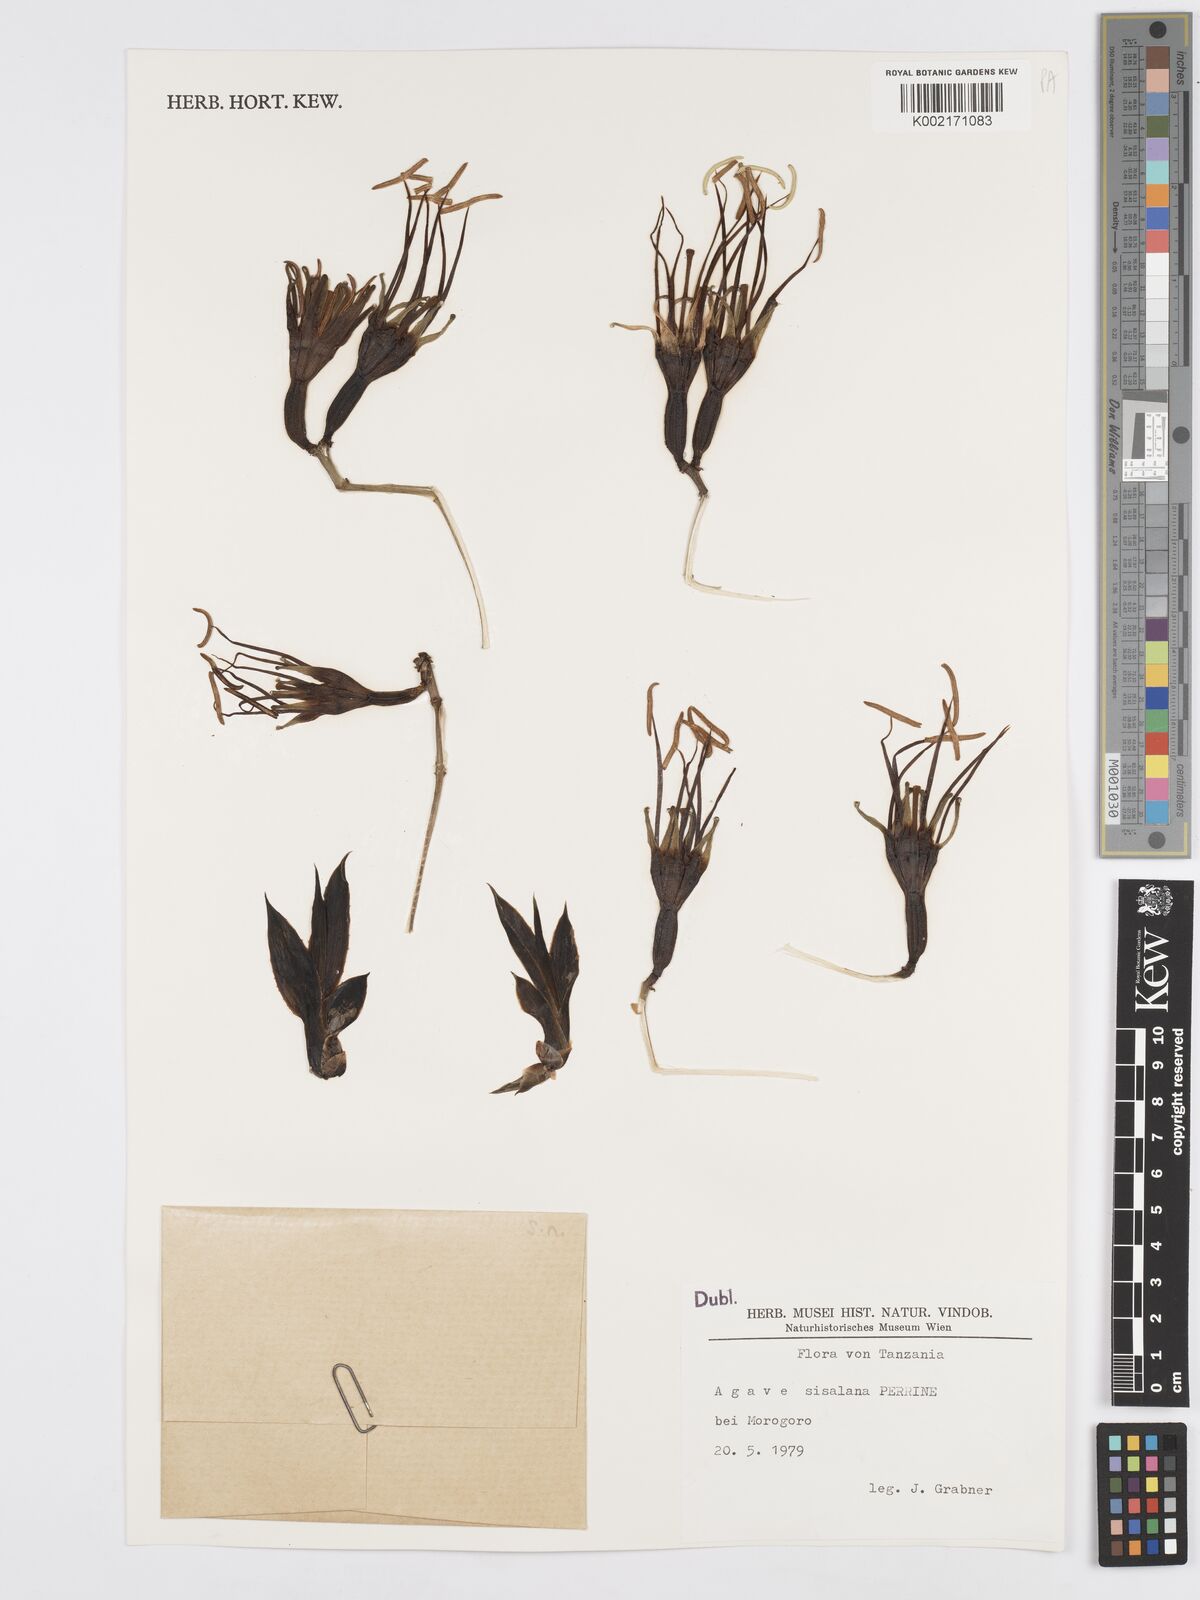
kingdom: Plantae
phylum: Tracheophyta
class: Liliopsida
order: Asparagales
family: Asparagaceae
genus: Agave
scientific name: Agave sisalana
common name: Sisal hemp
